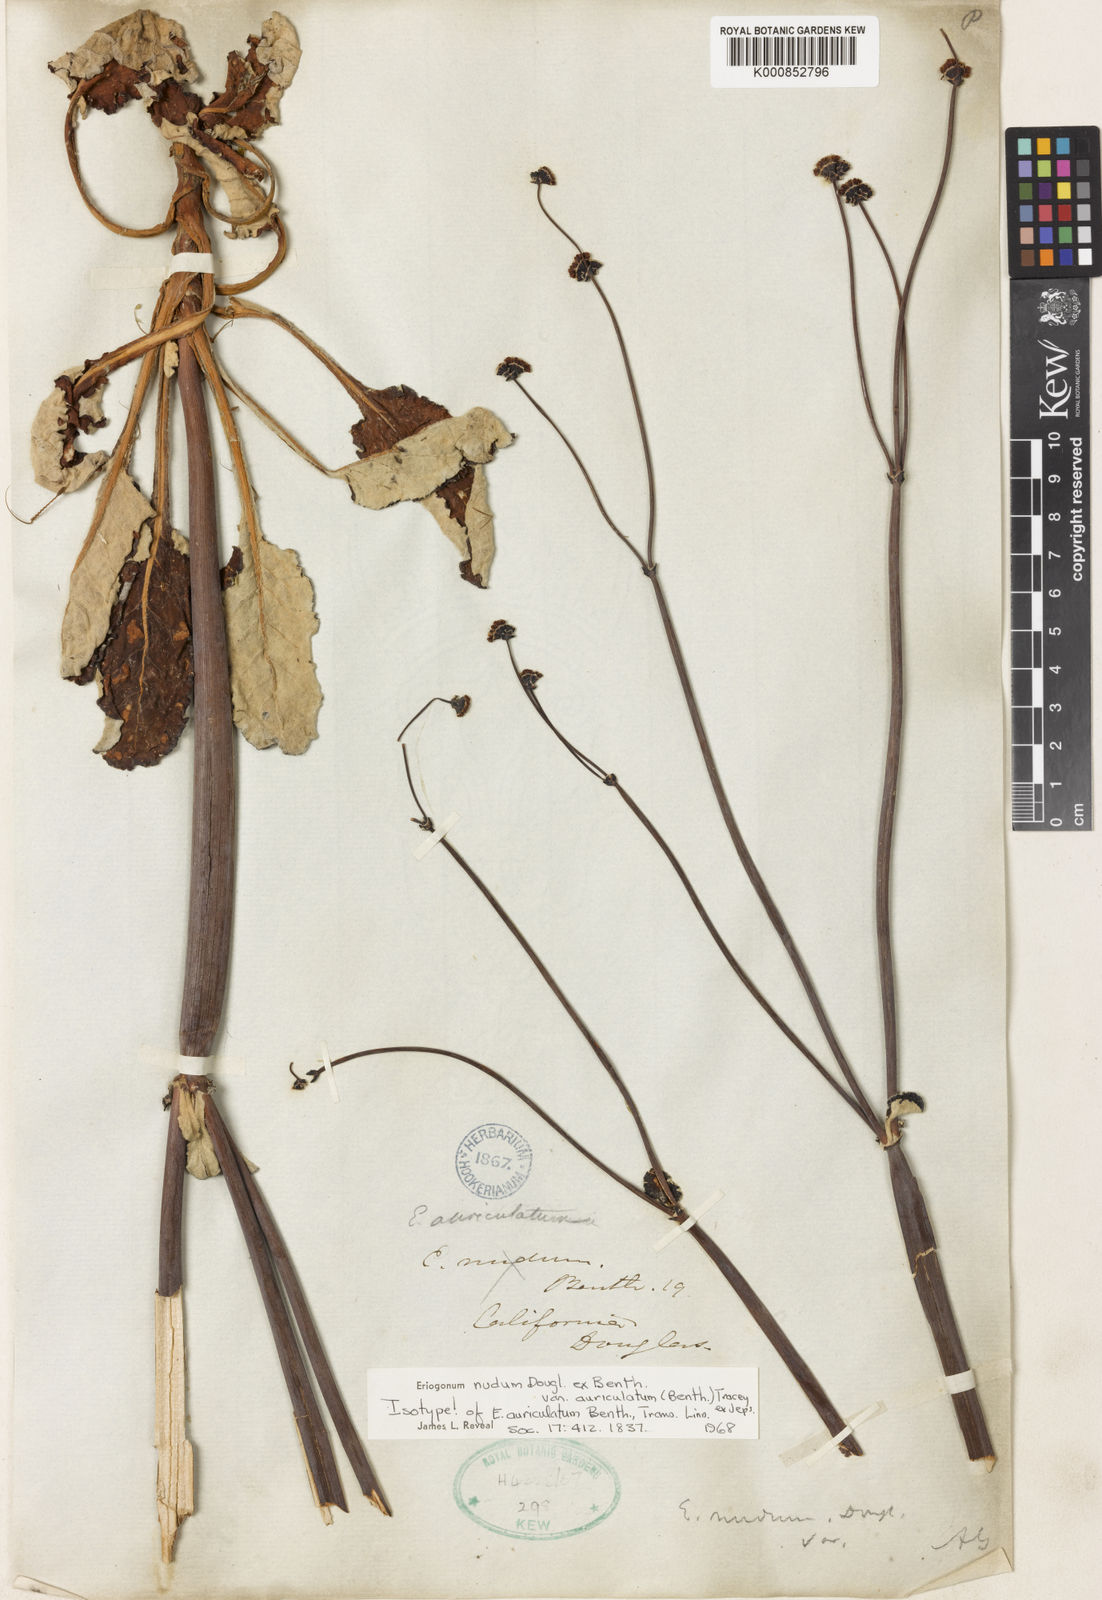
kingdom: Plantae
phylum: Tracheophyta
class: Magnoliopsida
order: Caryophyllales
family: Polygonaceae
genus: Eriogonum
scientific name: Eriogonum nudum
